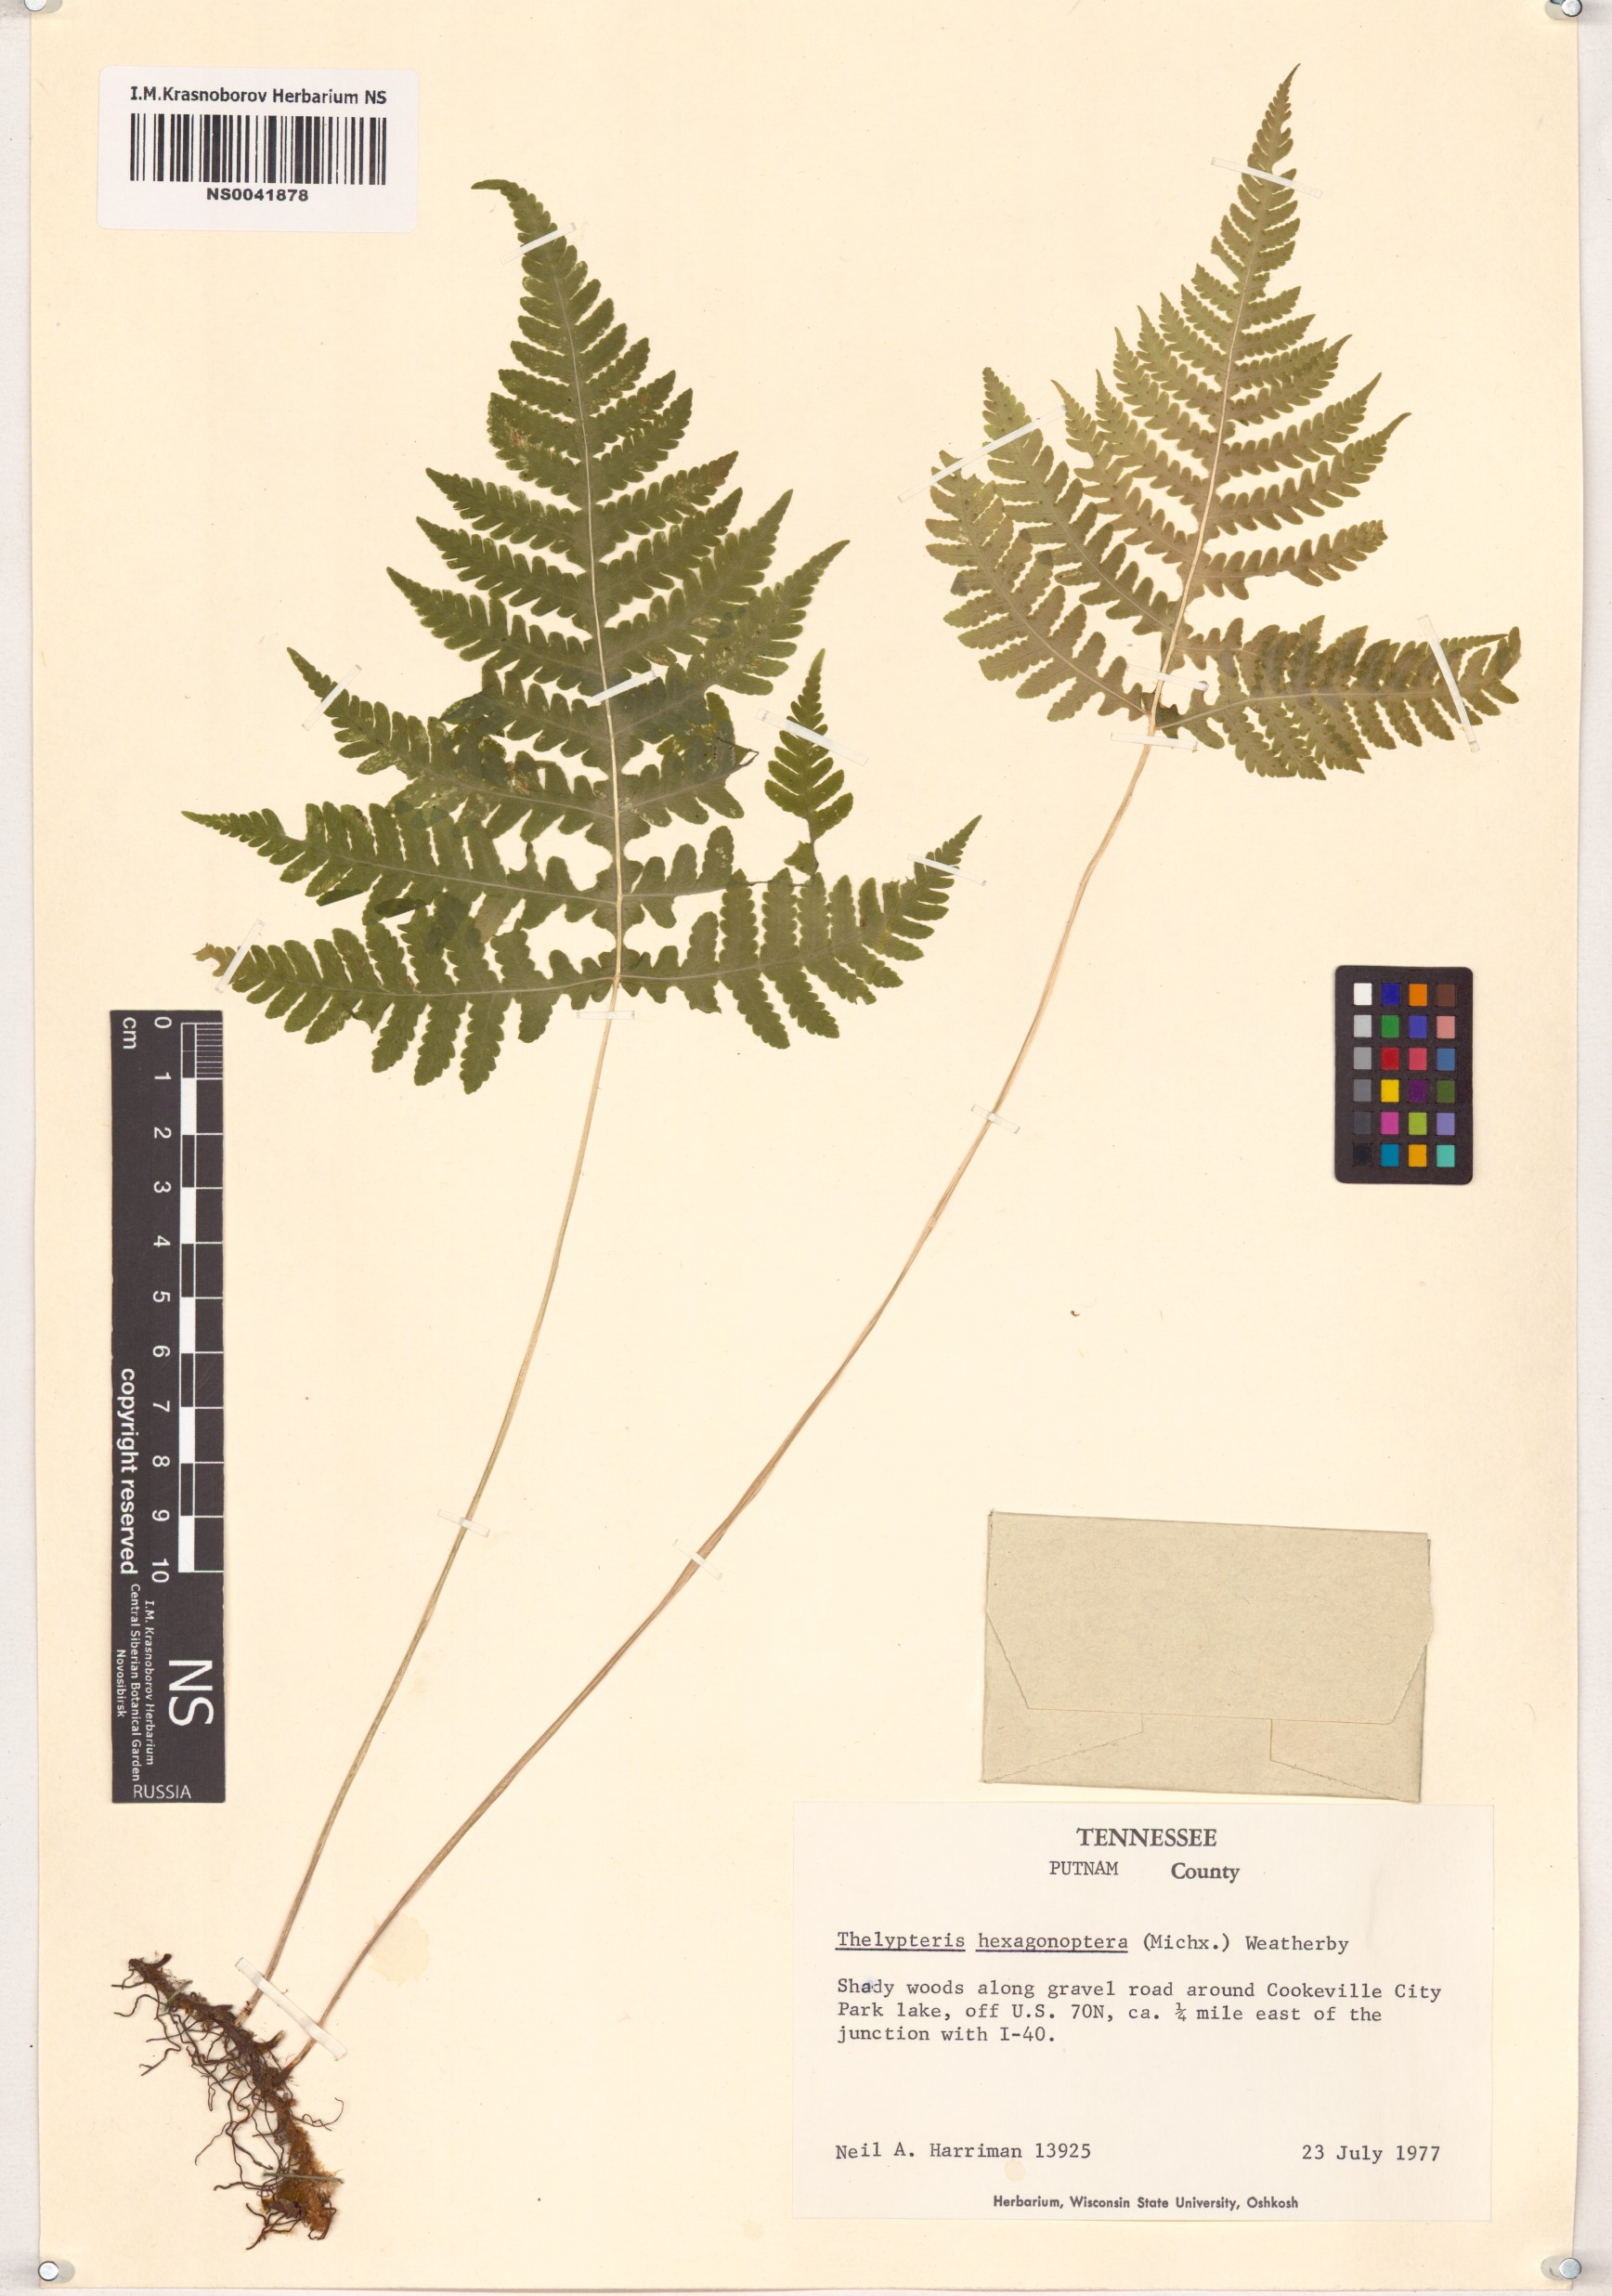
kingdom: Plantae
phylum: Tracheophyta
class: Polypodiopsida
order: Polypodiales
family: Thelypteridaceae
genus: Phegopteris
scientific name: Phegopteris hexagonoptera
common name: Broad beech fern
